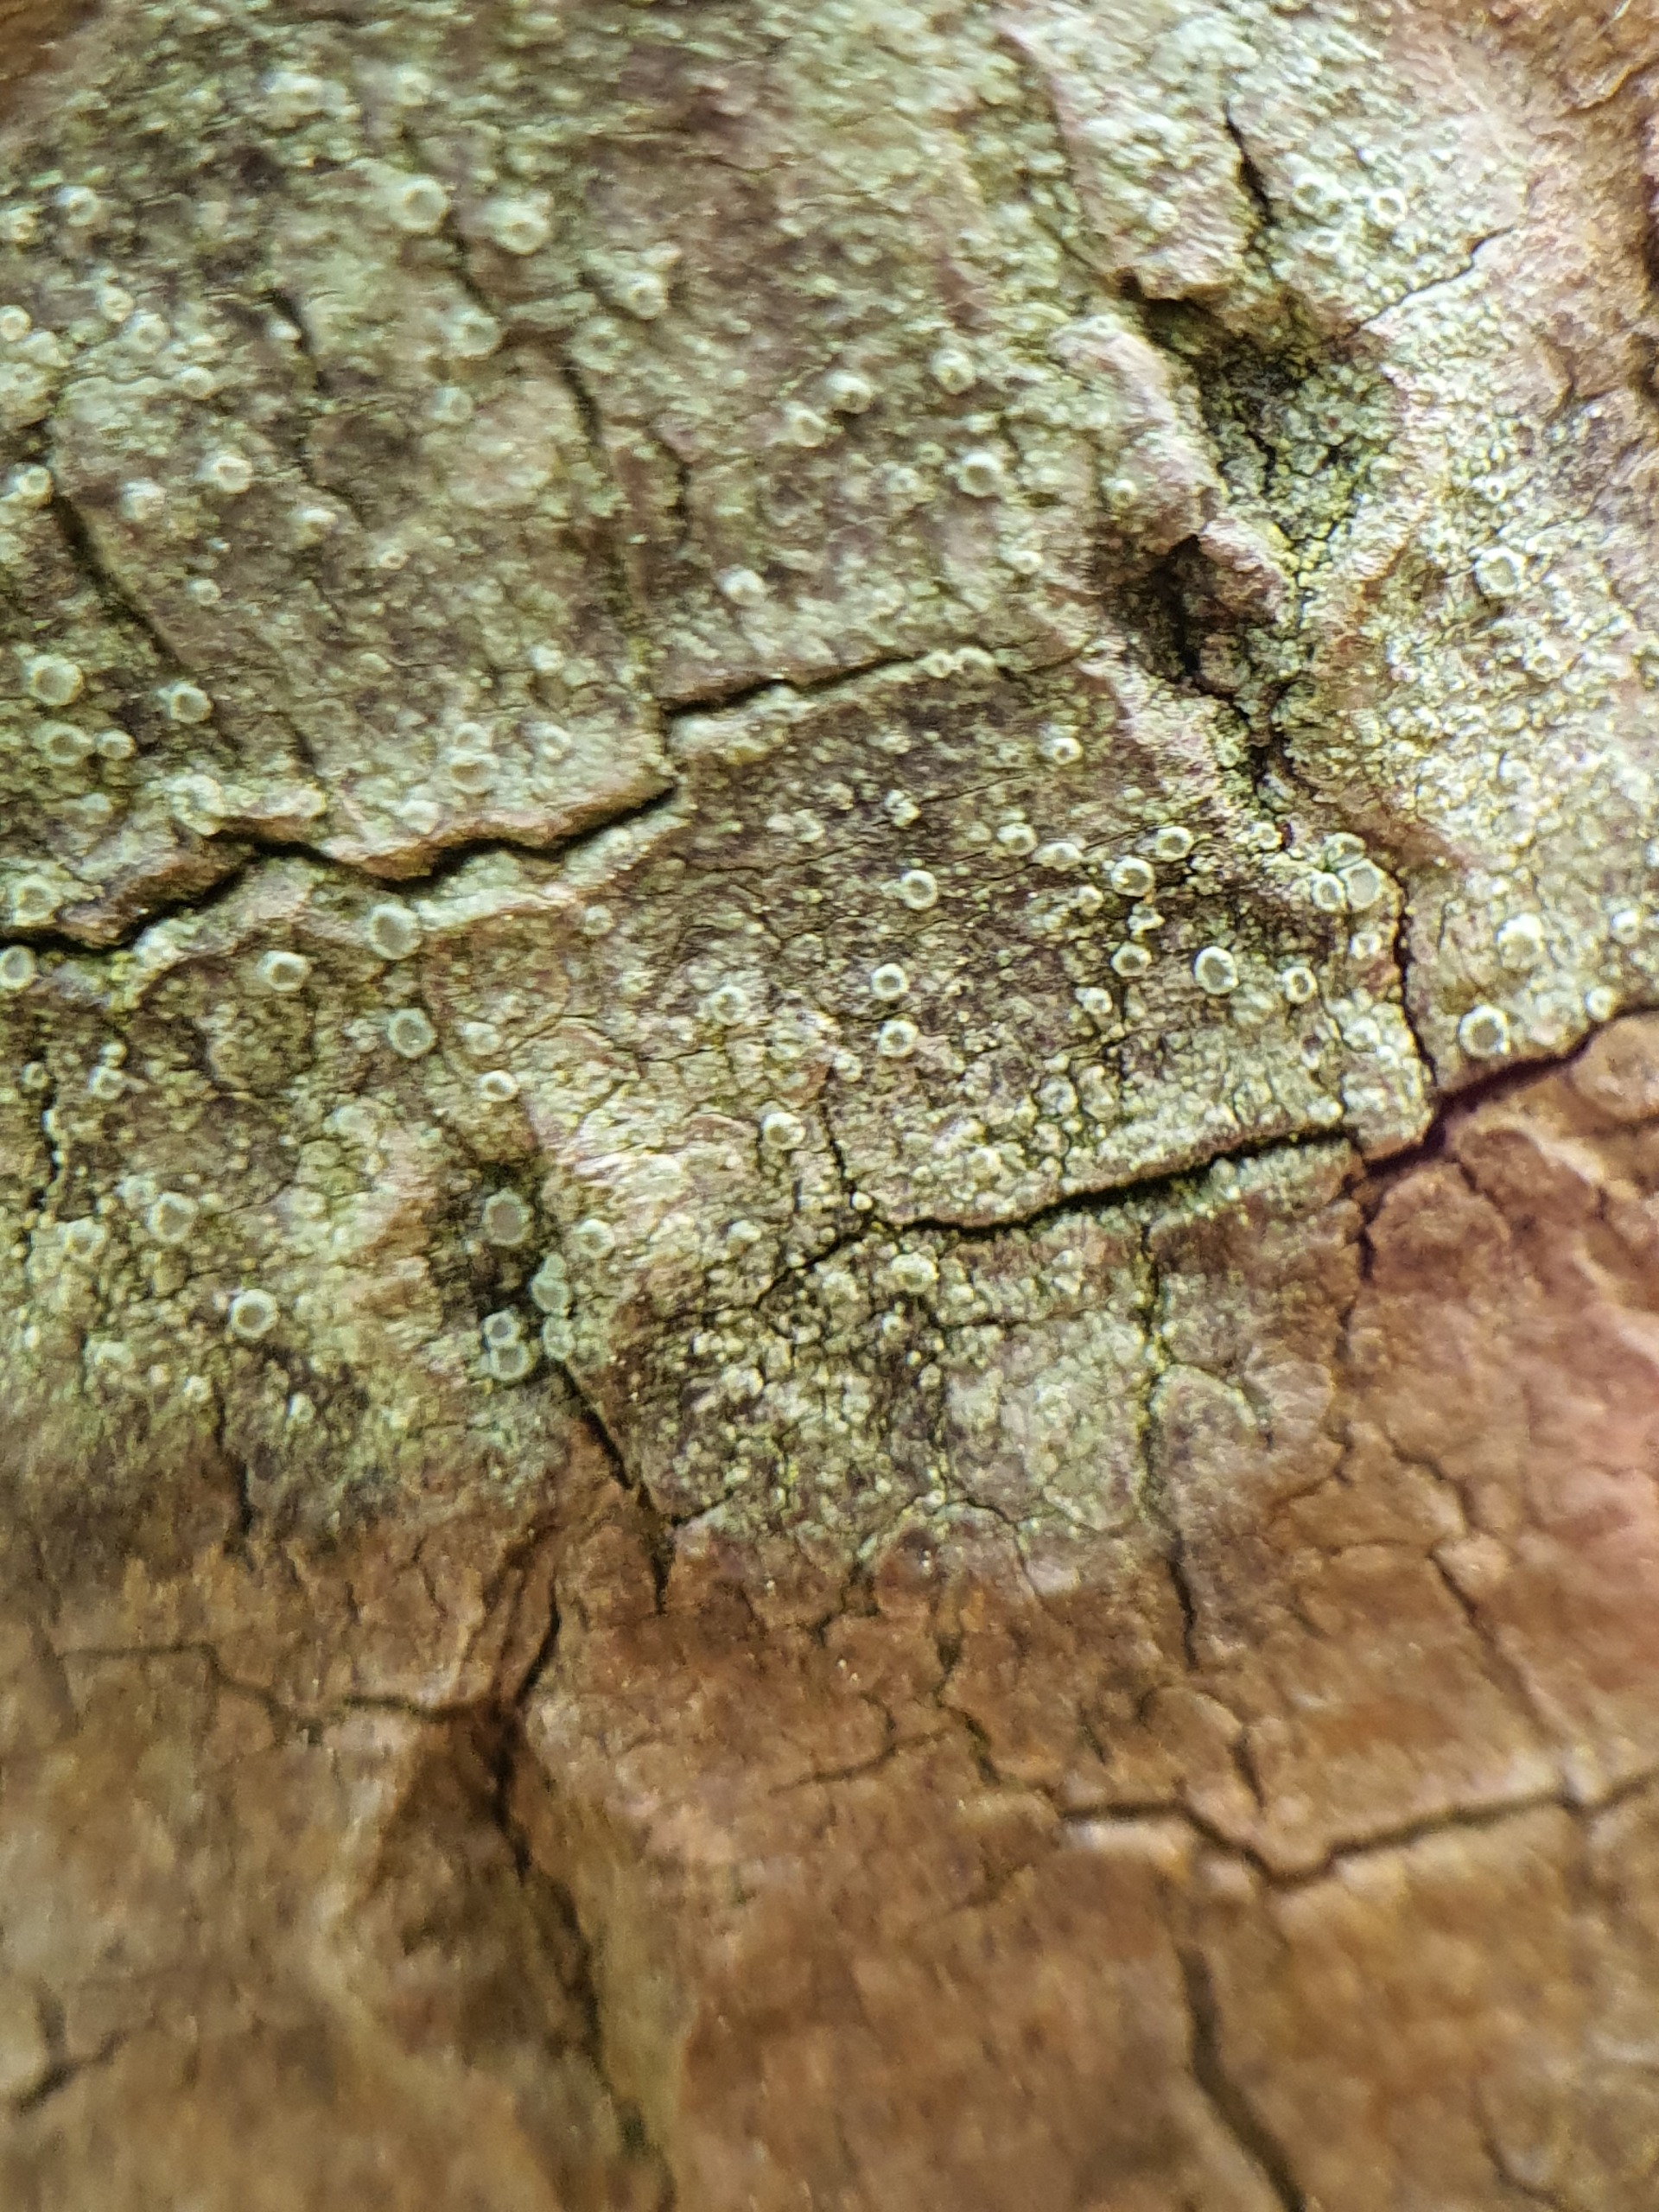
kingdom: Fungi
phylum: Ascomycota
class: Lecanoromycetes
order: Lecanorales
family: Lecanoraceae
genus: Lecanora
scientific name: Lecanora
